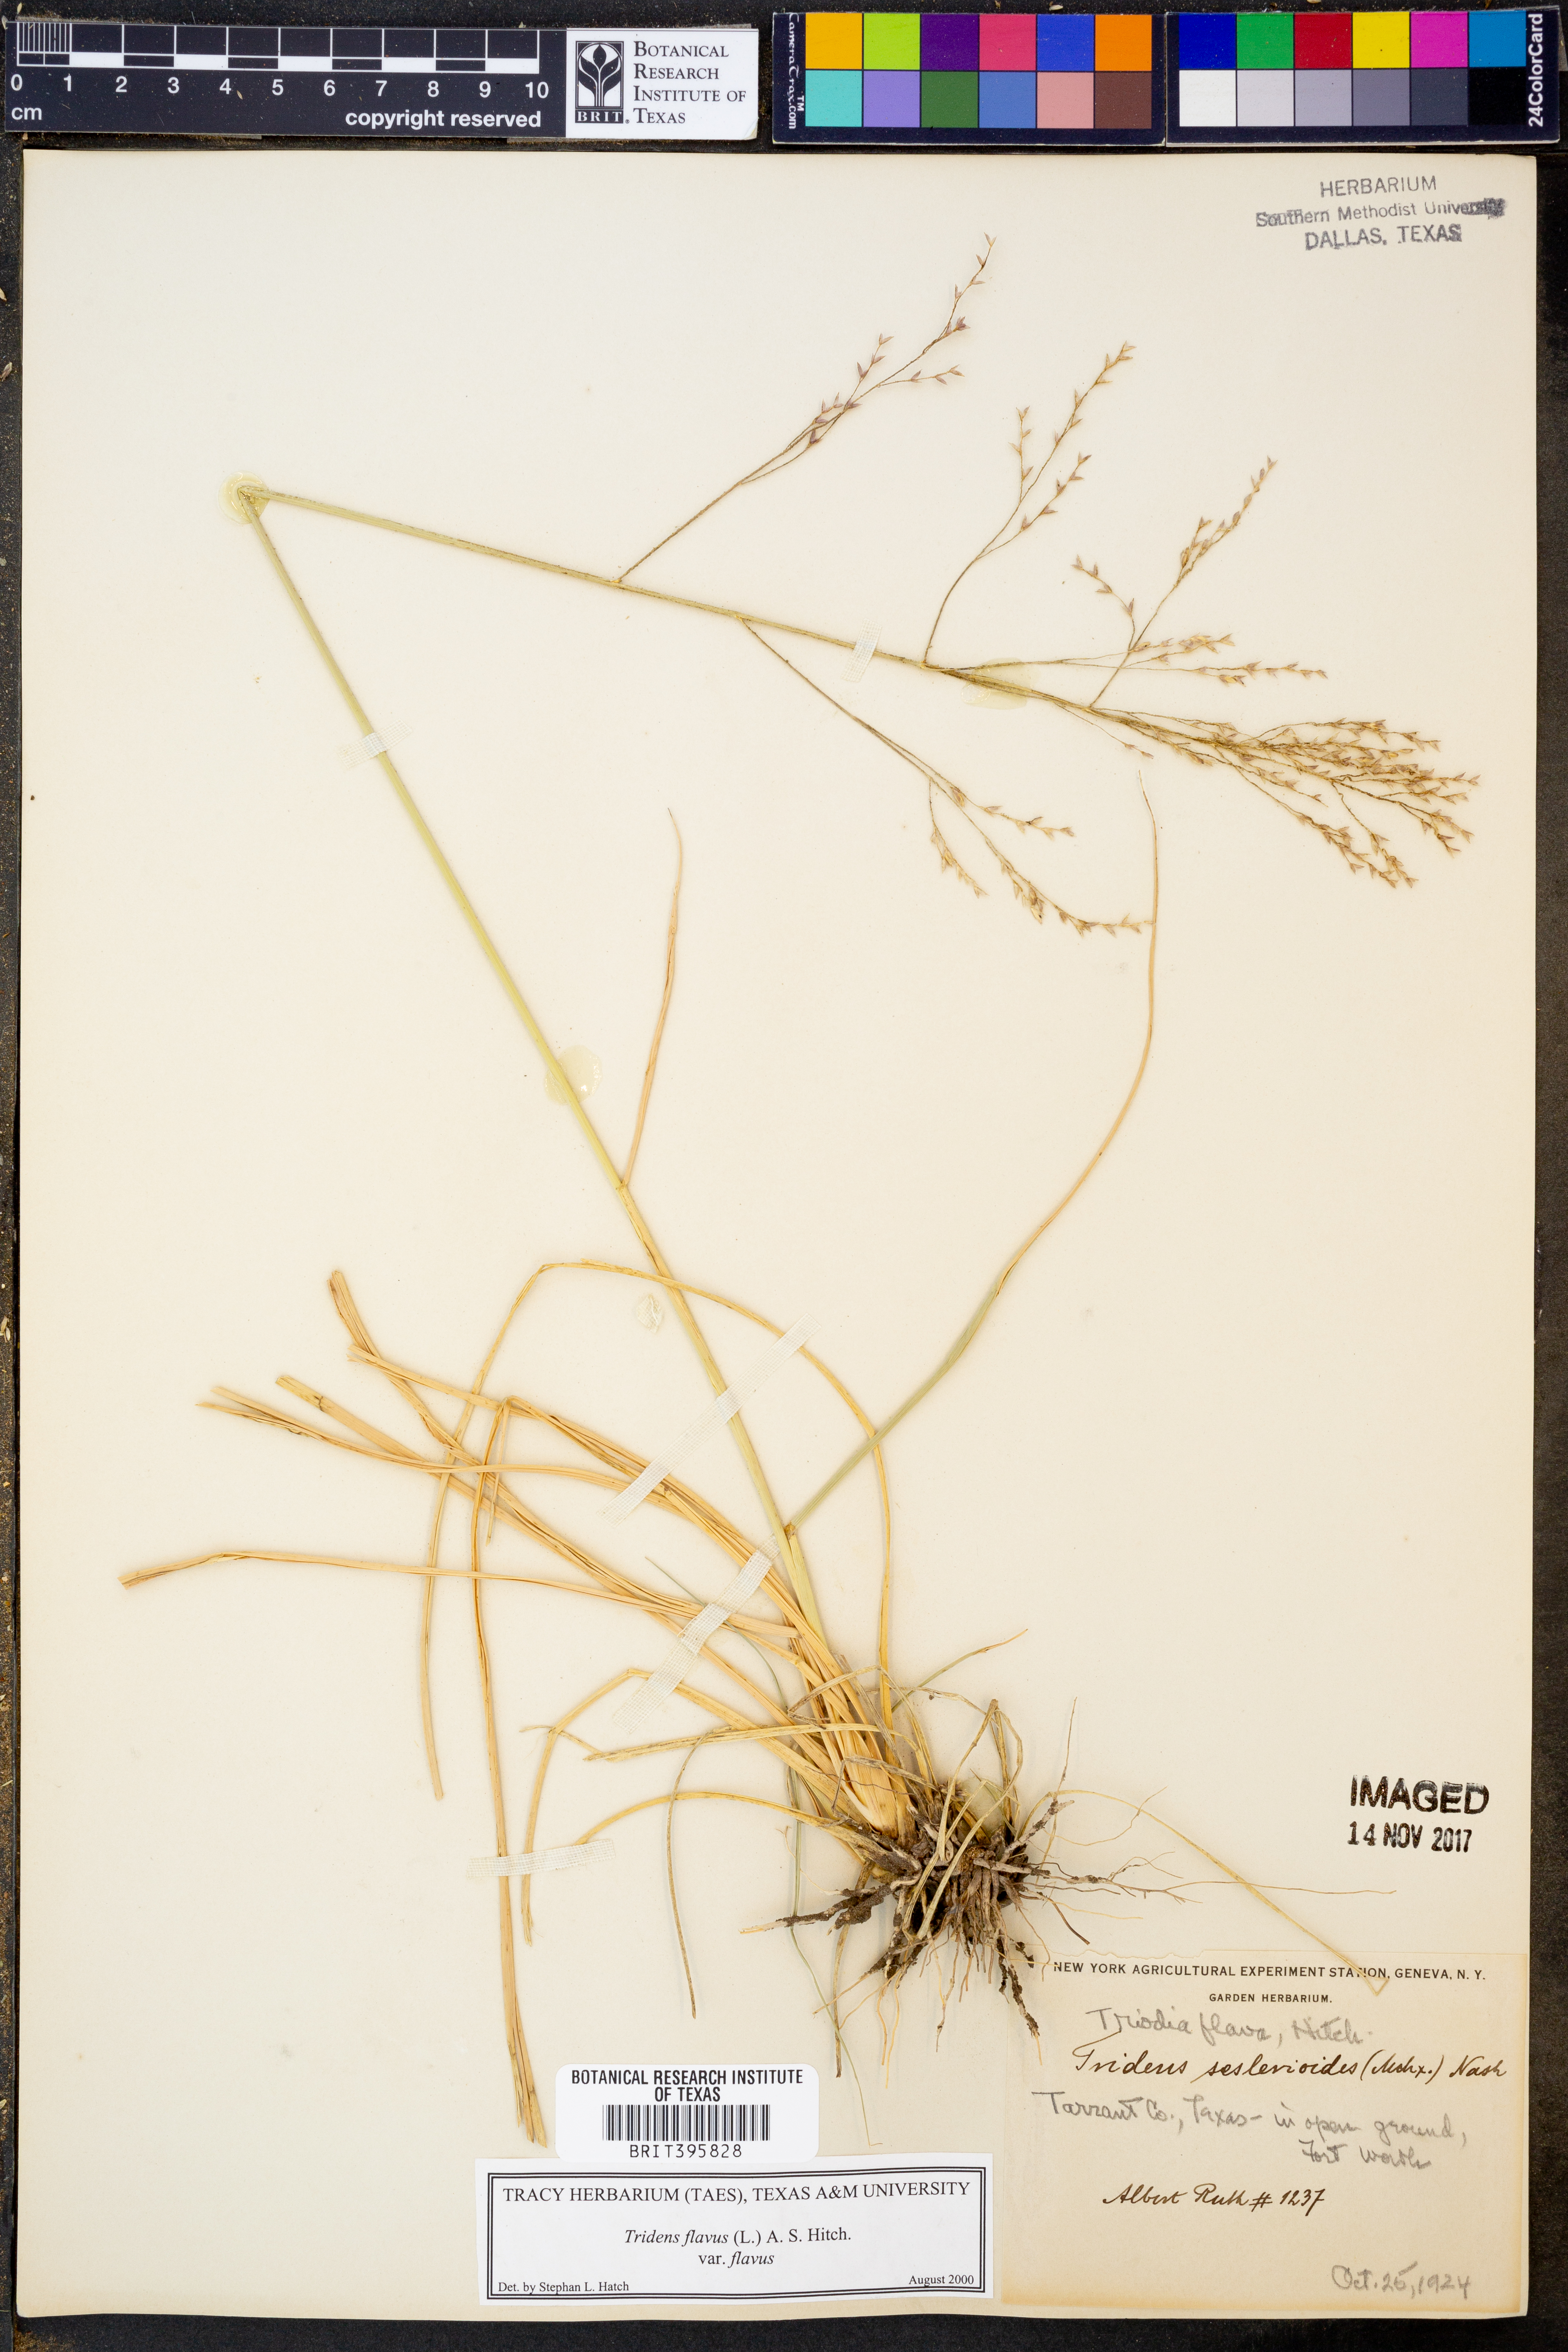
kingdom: Plantae
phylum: Tracheophyta
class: Liliopsida
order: Poales
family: Poaceae
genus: Tridens
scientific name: Tridens flavus
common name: Purpletop
